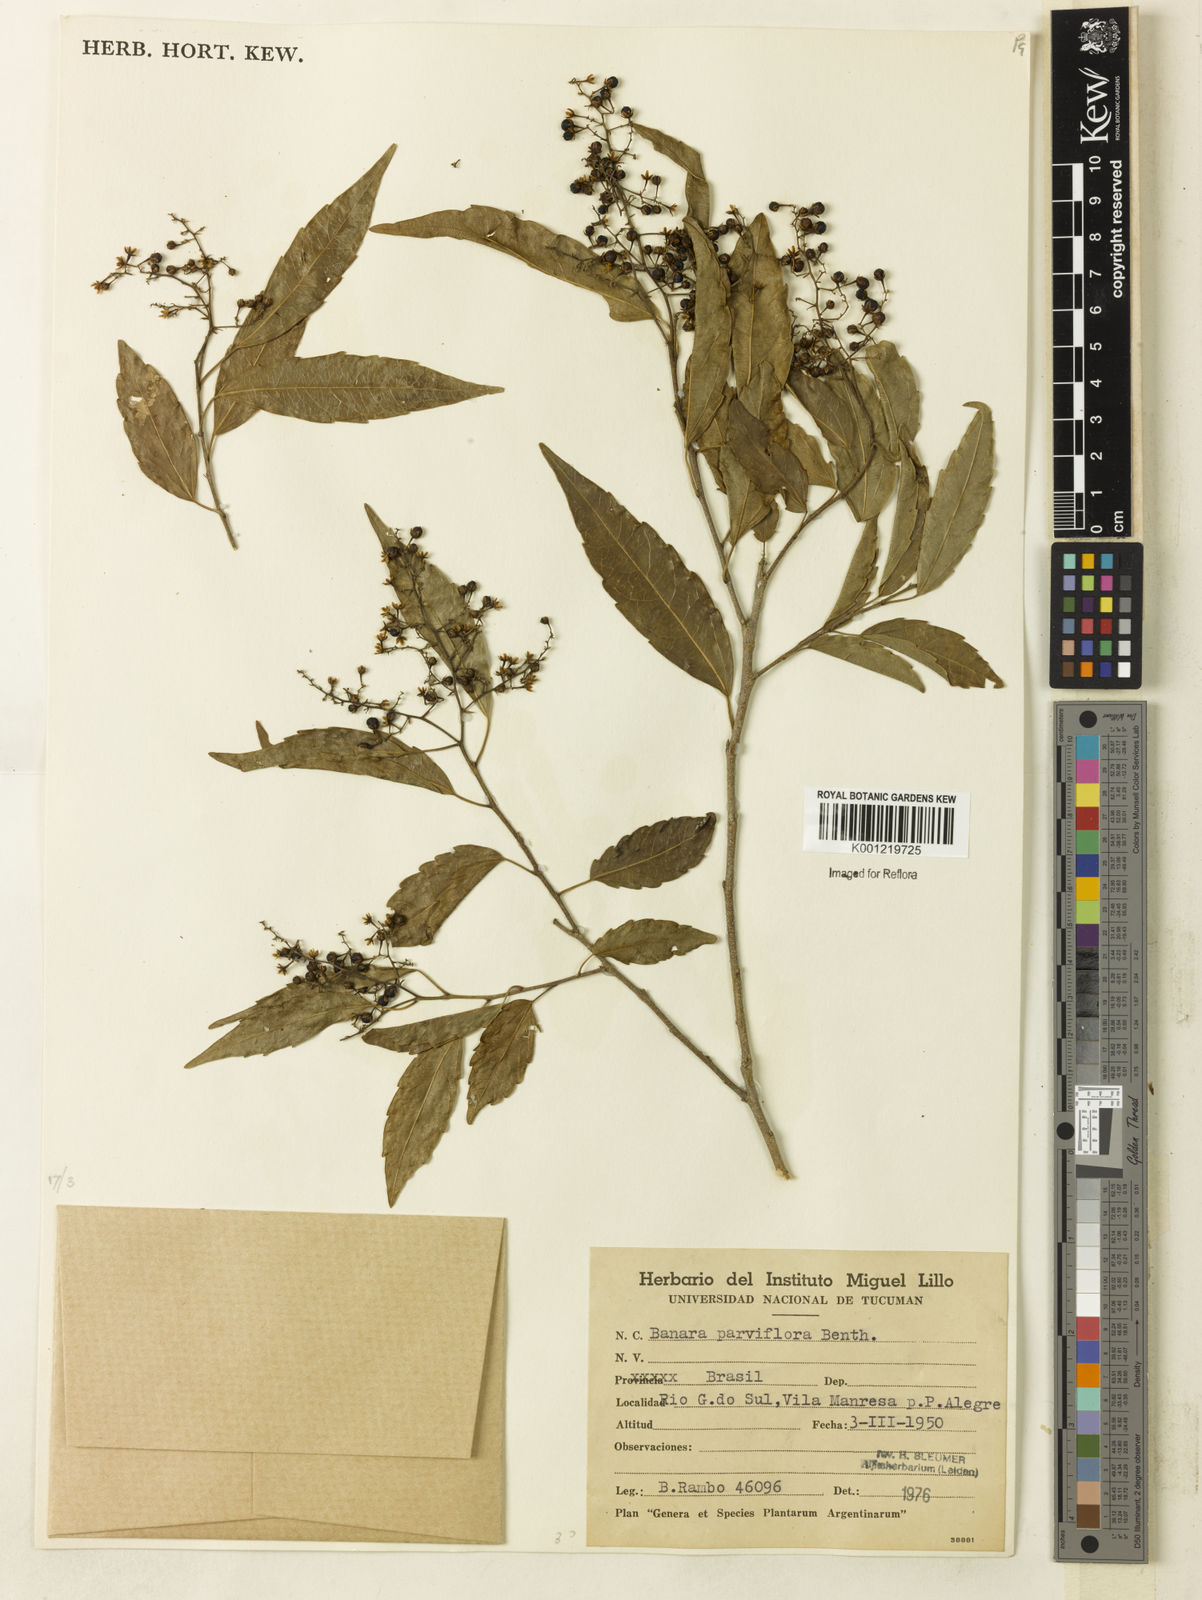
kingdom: Plantae
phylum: Tracheophyta
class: Magnoliopsida
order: Malpighiales
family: Salicaceae
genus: Banara
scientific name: Banara parviflora
